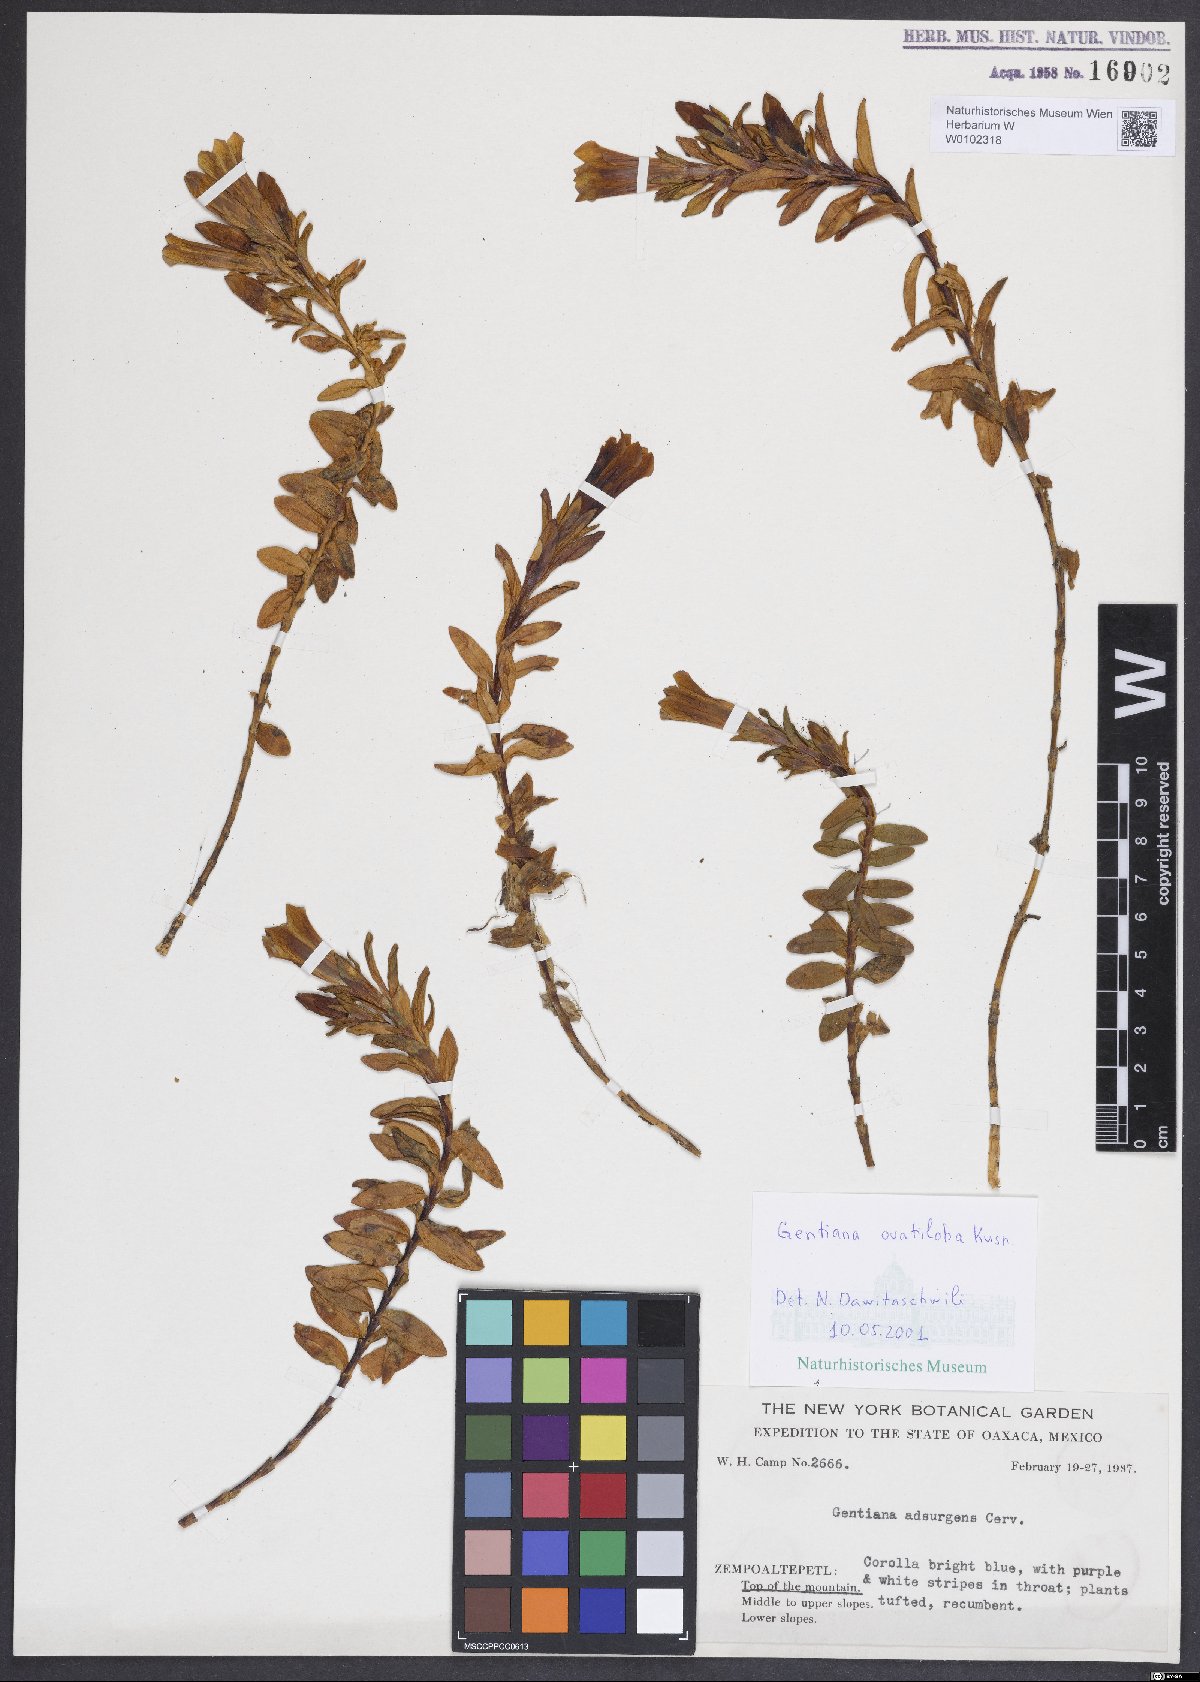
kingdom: Plantae
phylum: Tracheophyta
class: Magnoliopsida
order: Gentianales
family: Gentianaceae
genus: Gentiana
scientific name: Gentiana ovatiloba
